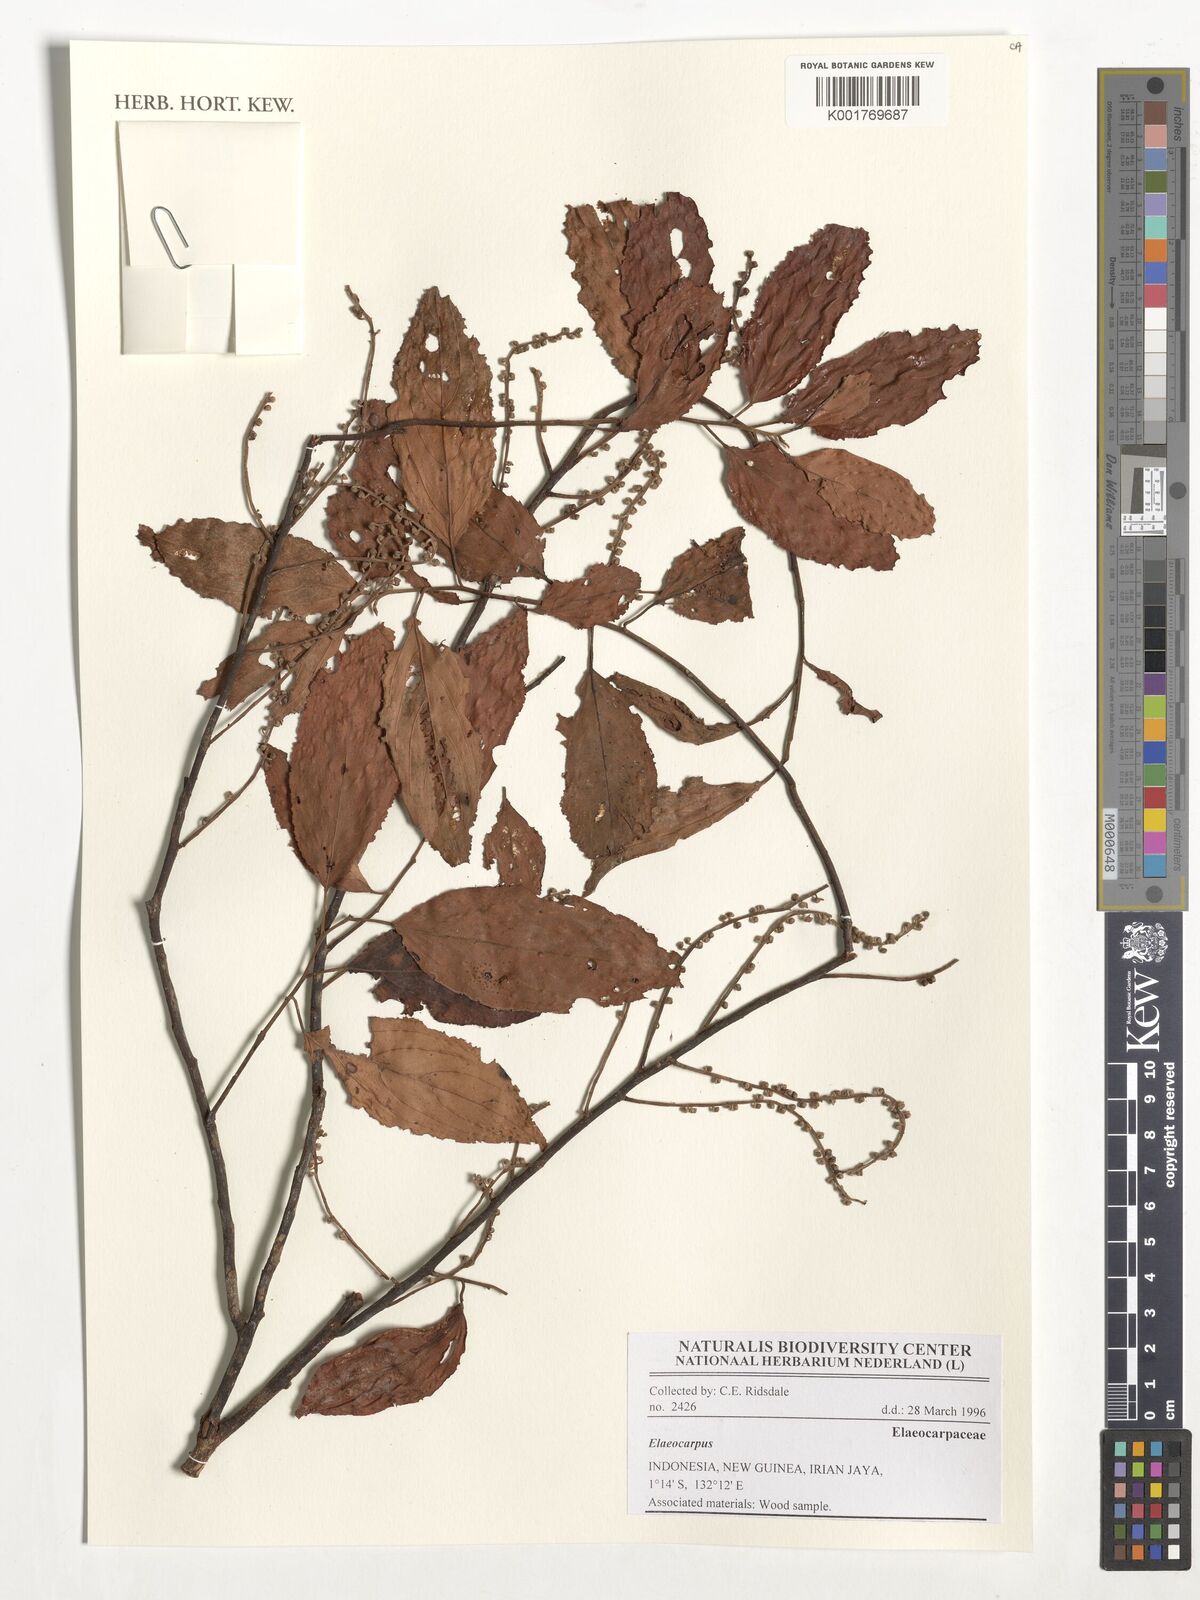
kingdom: Plantae
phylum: Tracheophyta
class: Magnoliopsida
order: Oxalidales
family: Elaeocarpaceae
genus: Elaeocarpus
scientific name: Elaeocarpus
